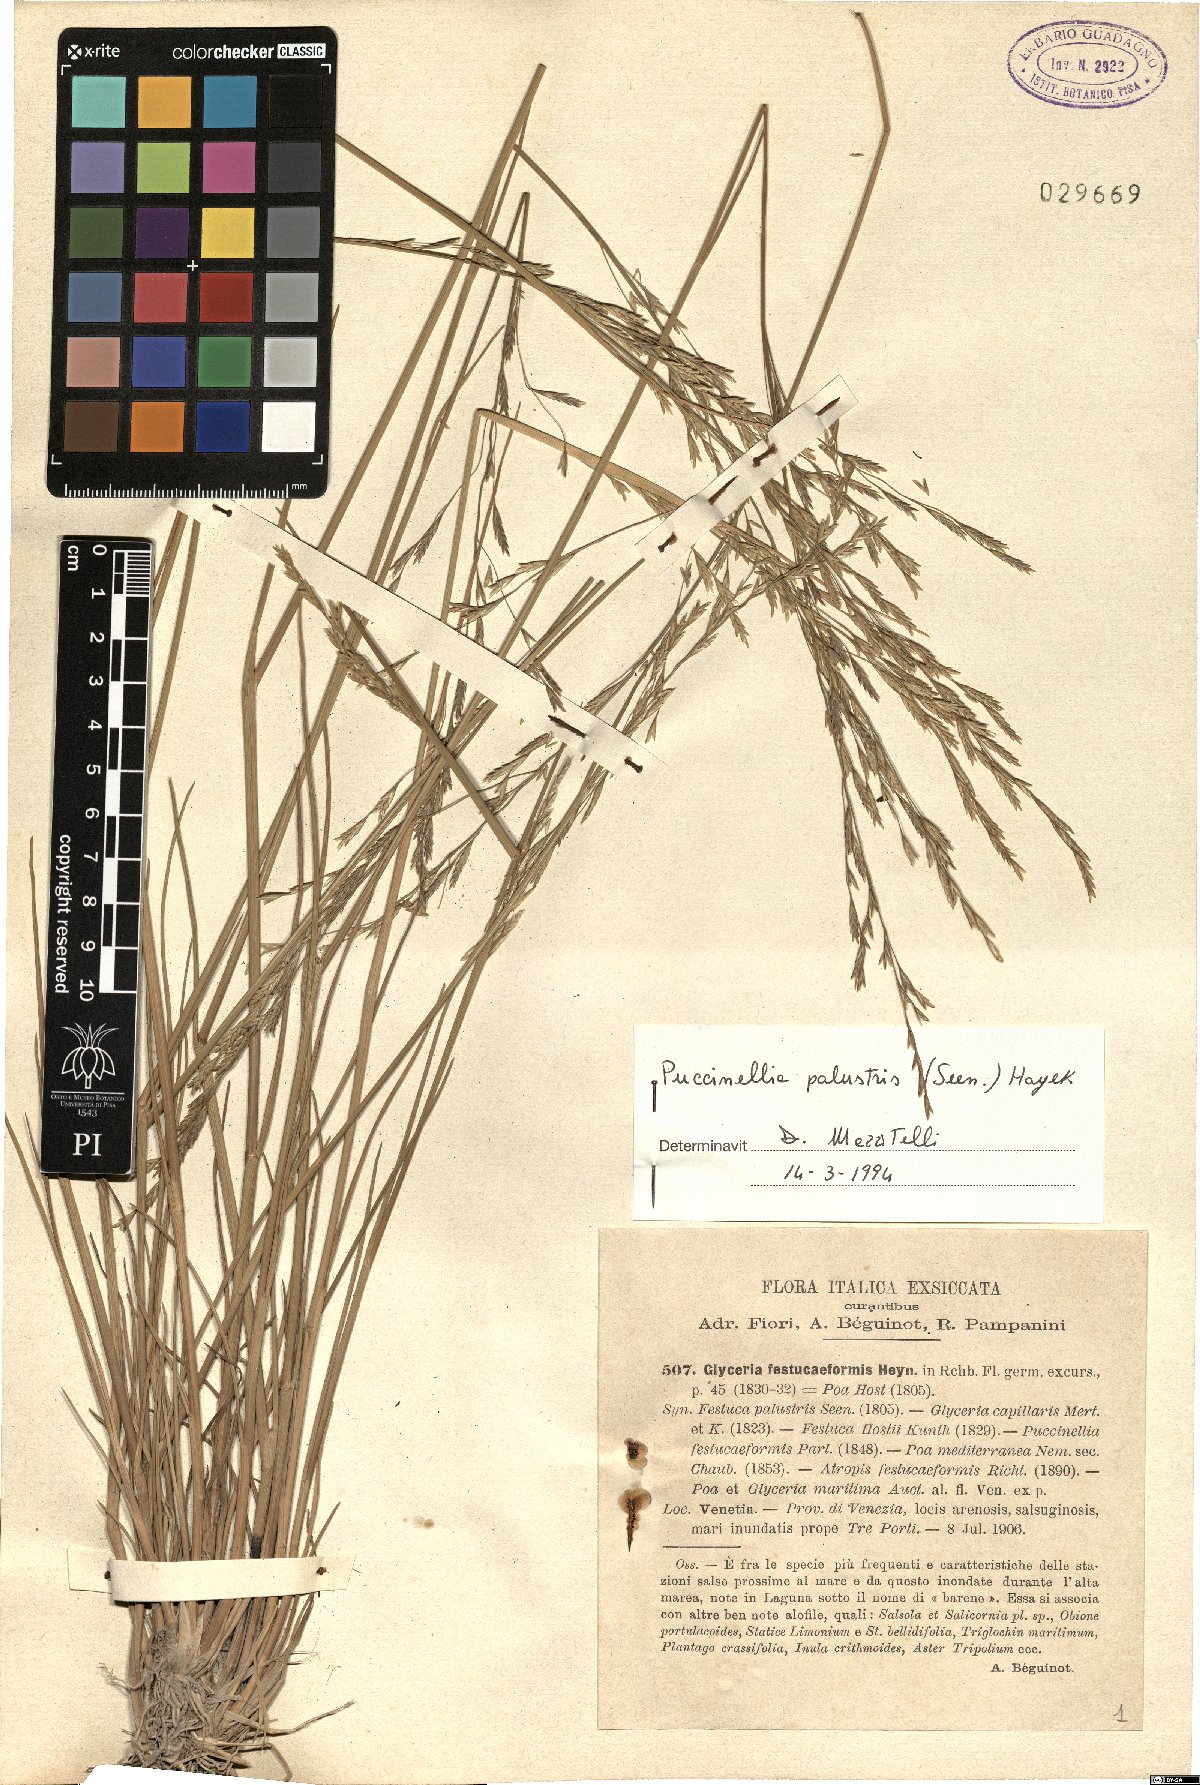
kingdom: Plantae
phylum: Tracheophyta
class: Liliopsida
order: Poales
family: Poaceae
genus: Puccinellia
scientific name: Puccinellia festuciformis
